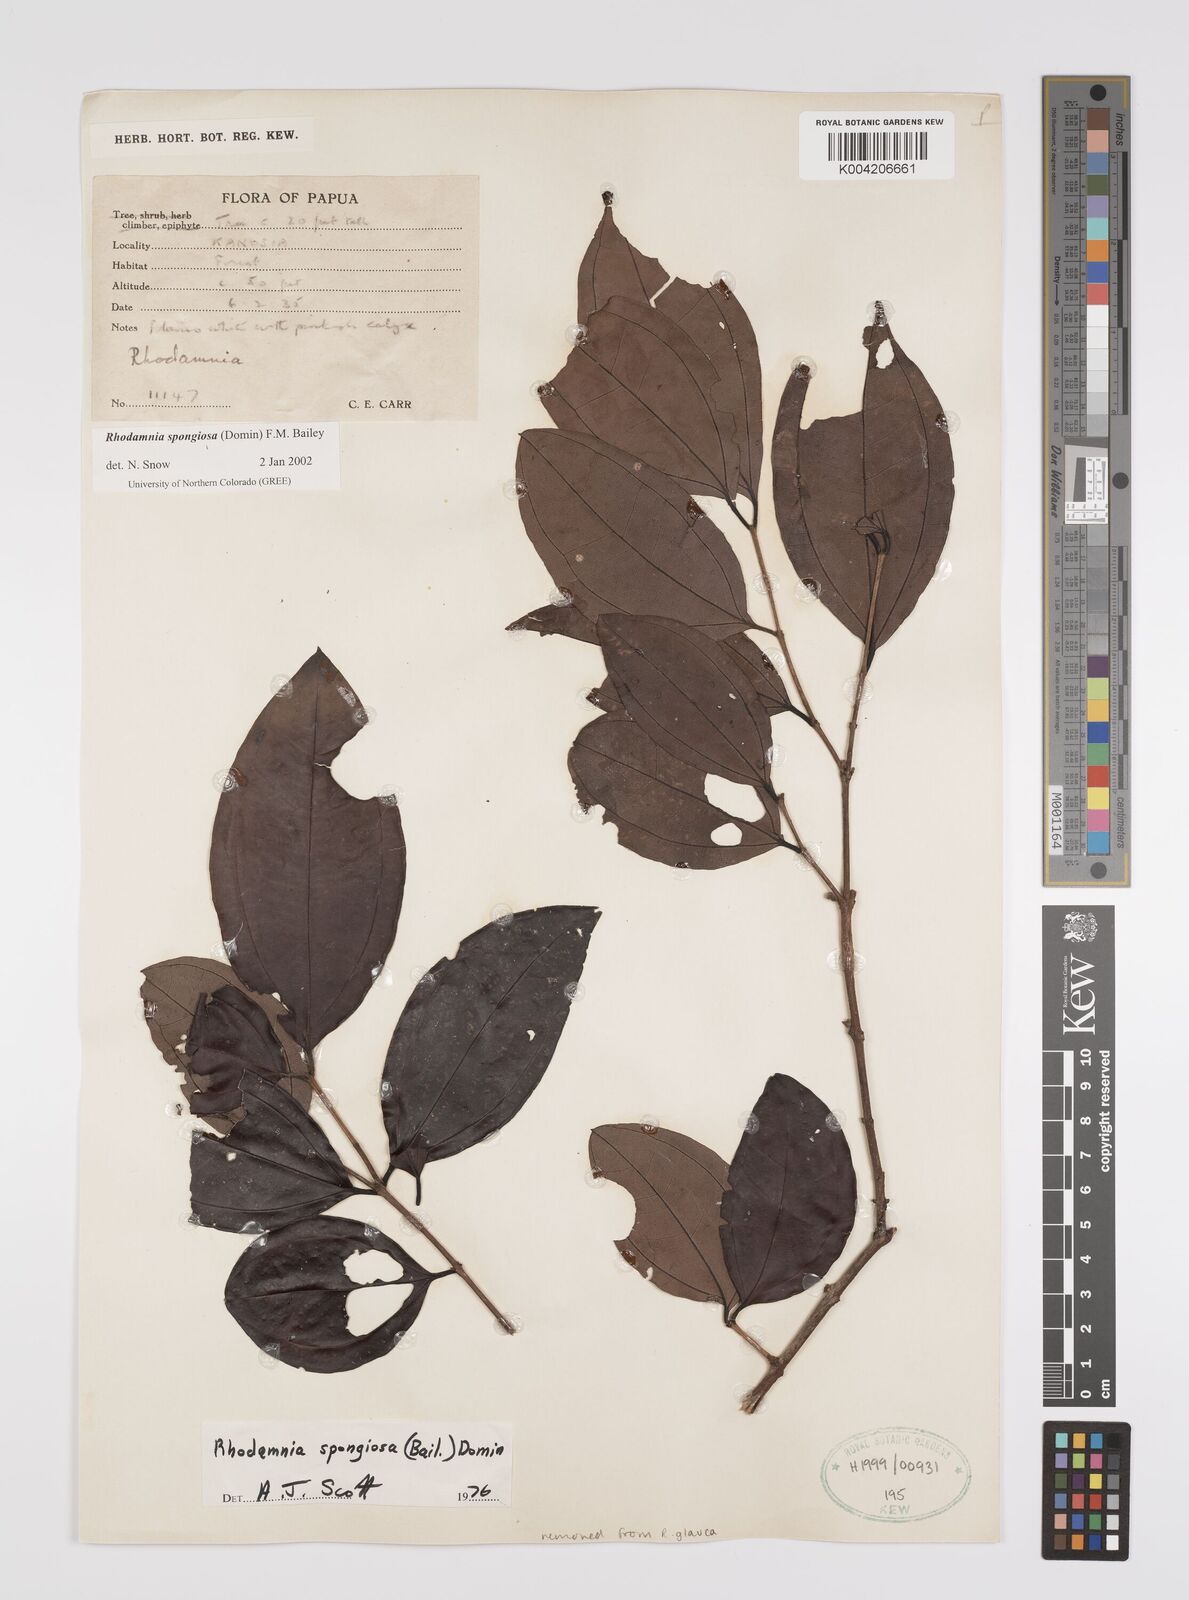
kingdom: Plantae
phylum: Tracheophyta
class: Magnoliopsida
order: Myrtales
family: Myrtaceae
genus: Rhodamnia
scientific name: Rhodamnia glauca
